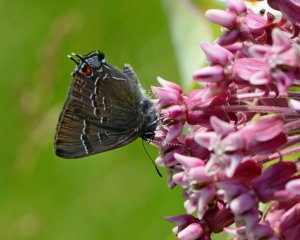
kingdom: Animalia
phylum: Arthropoda
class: Insecta
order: Lepidoptera
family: Lycaenidae
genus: Satyrium
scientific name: Satyrium calanus
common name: Banded Hairstreak
